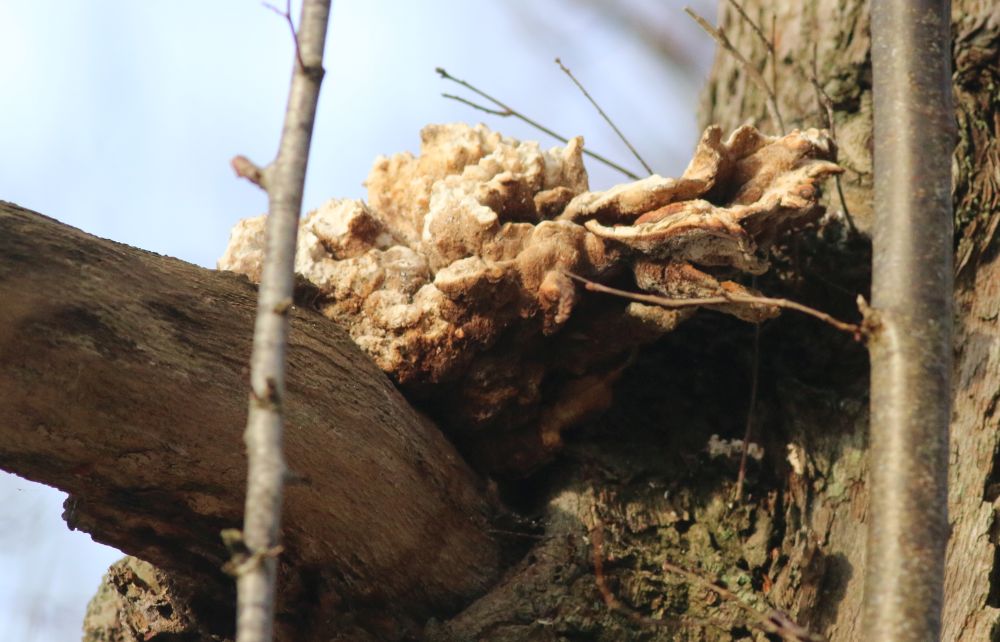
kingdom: Fungi
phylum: Basidiomycota
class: Agaricomycetes
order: Polyporales
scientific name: Polyporales
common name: poresvampordenen
